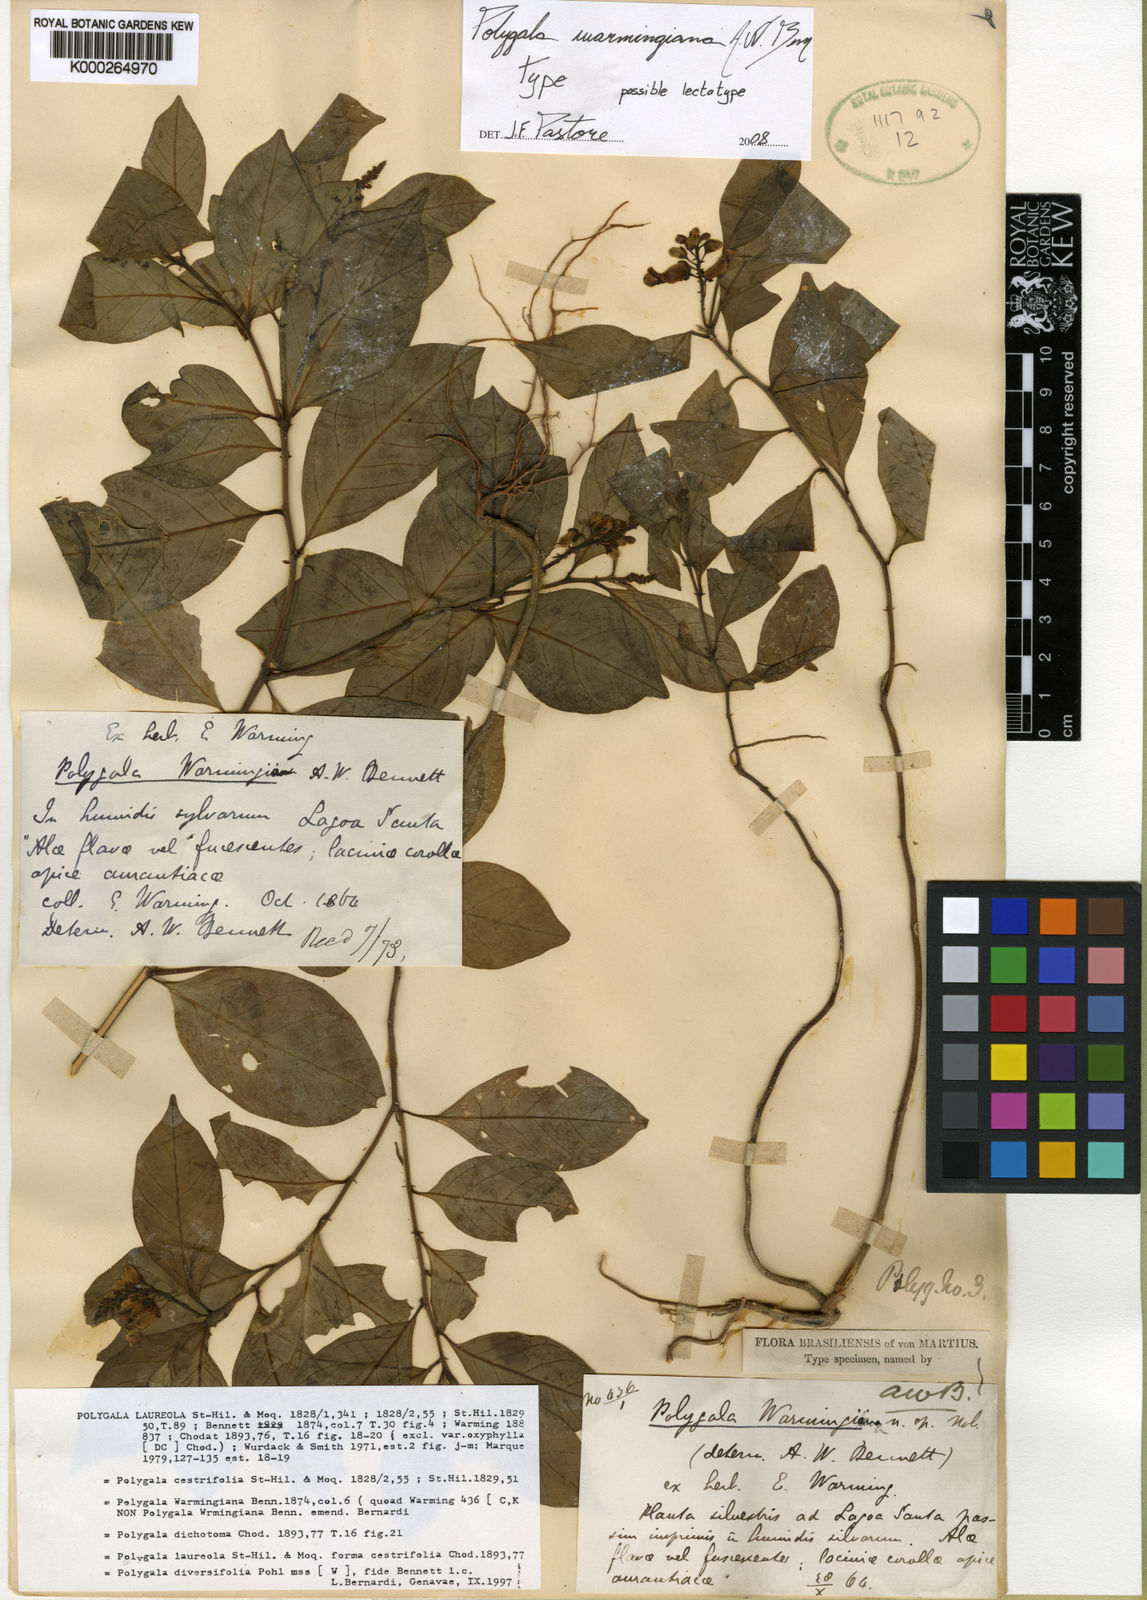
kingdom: Plantae
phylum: Tracheophyta
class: Magnoliopsida
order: Fabales
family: Polygalaceae
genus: Caamembeca
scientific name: Caamembeca warmingiana
